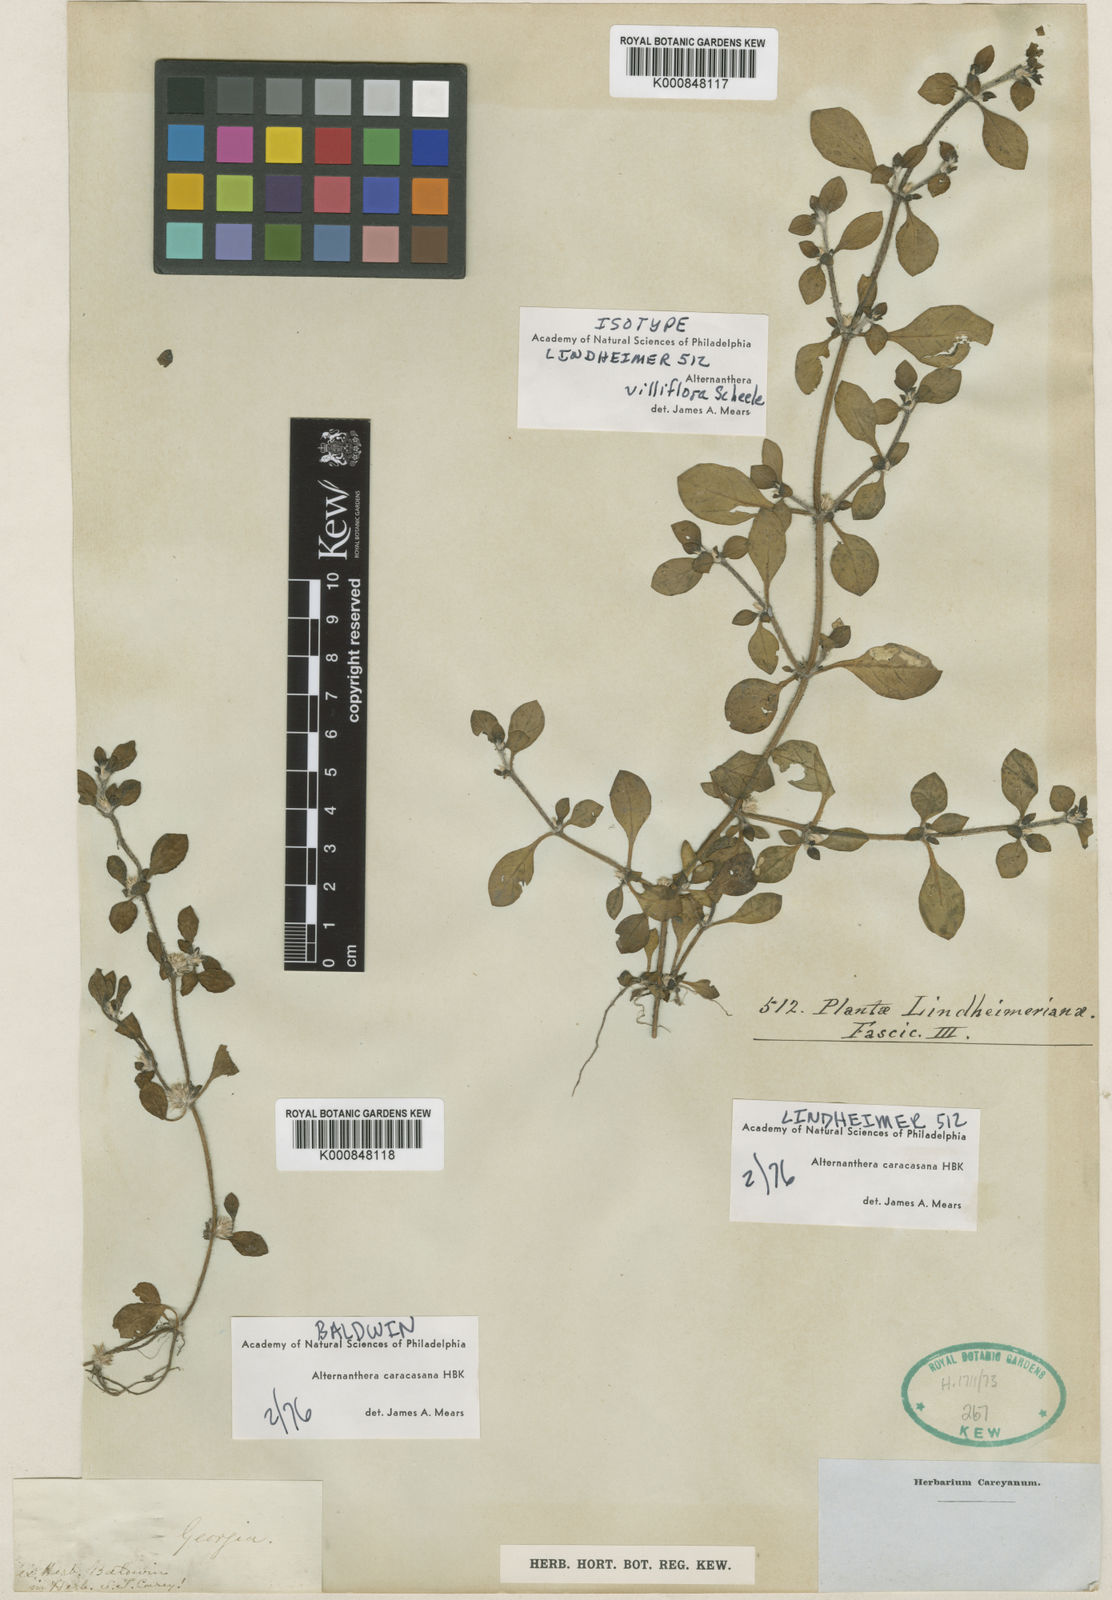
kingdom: Plantae
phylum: Tracheophyta
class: Magnoliopsida
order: Caryophyllales
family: Amaranthaceae
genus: Alternanthera
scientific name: Alternanthera caracasana
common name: Washerwoman
